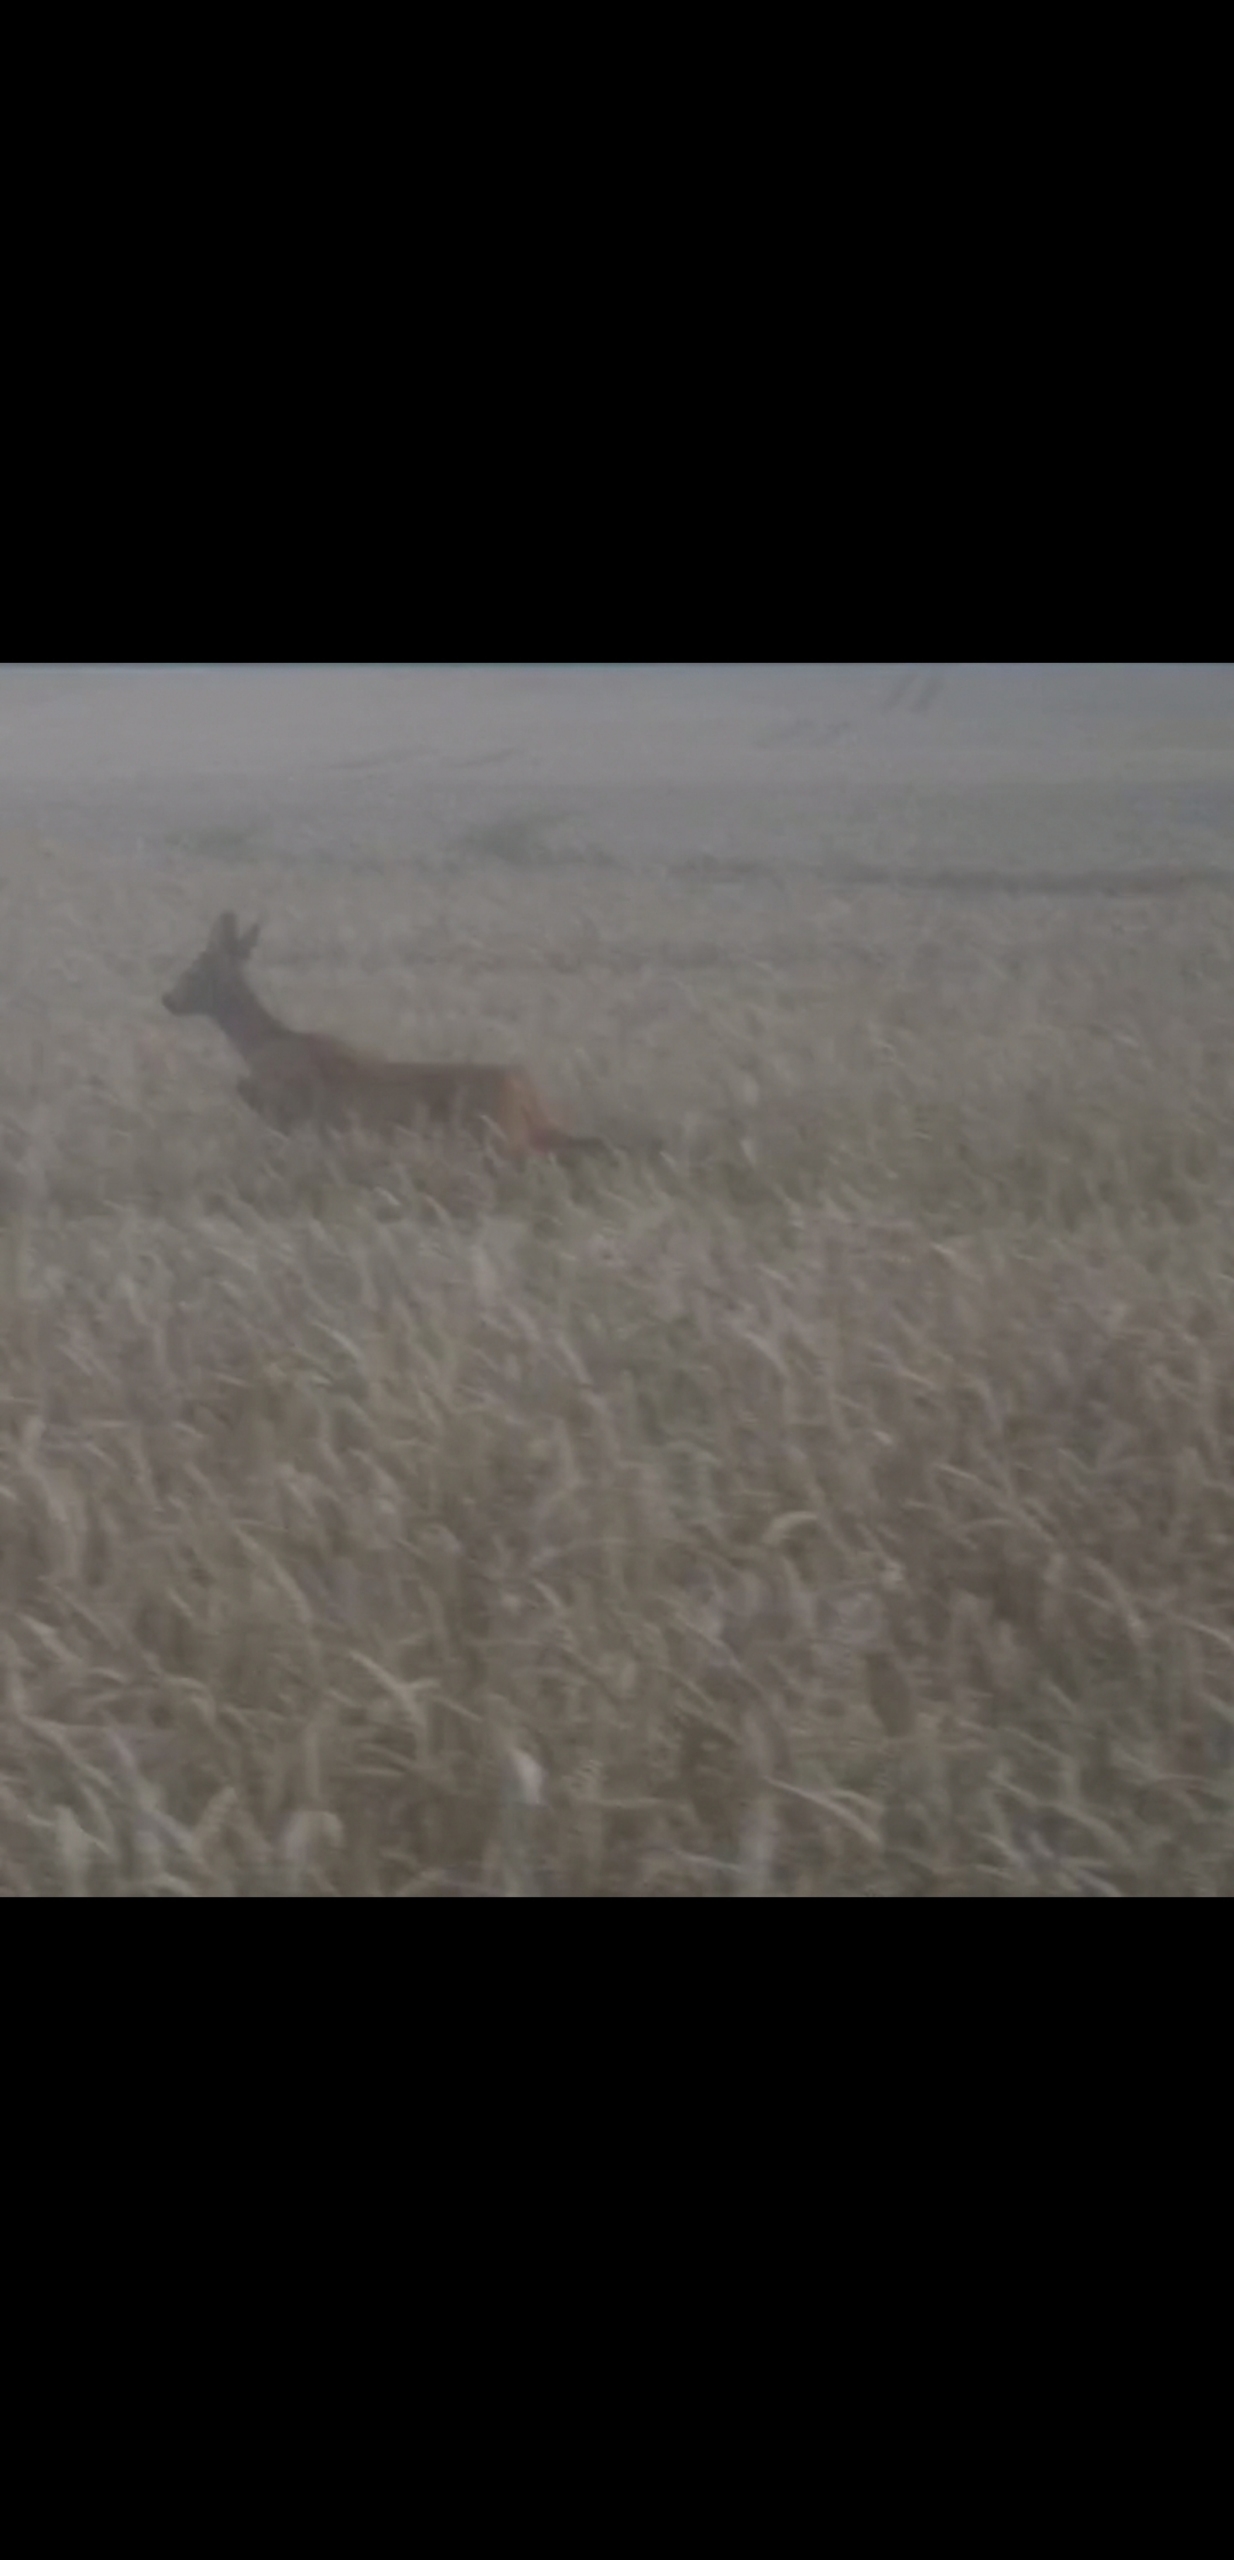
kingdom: Animalia
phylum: Chordata
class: Mammalia
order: Artiodactyla
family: Cervidae
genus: Capreolus
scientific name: Capreolus capreolus
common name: Rådyr
